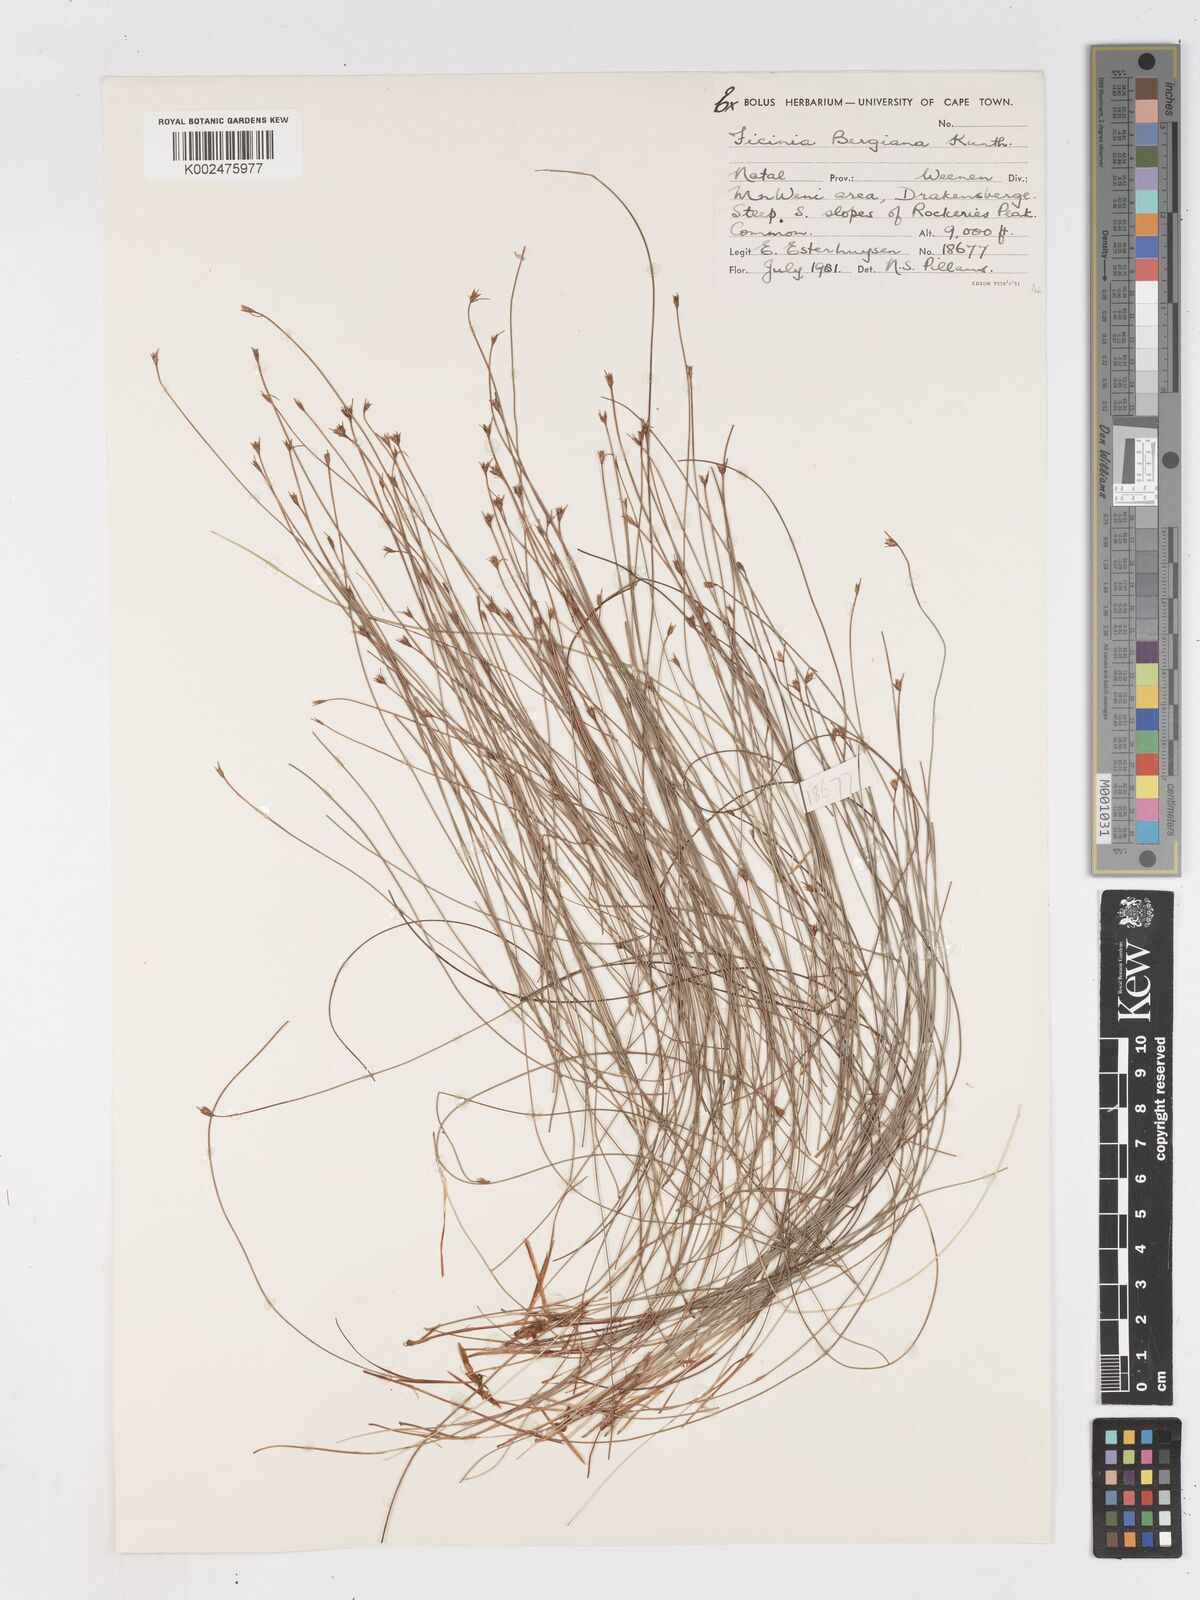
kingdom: Plantae
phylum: Tracheophyta
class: Liliopsida
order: Poales
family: Cyperaceae
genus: Ficinia
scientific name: Ficinia filiculmea
